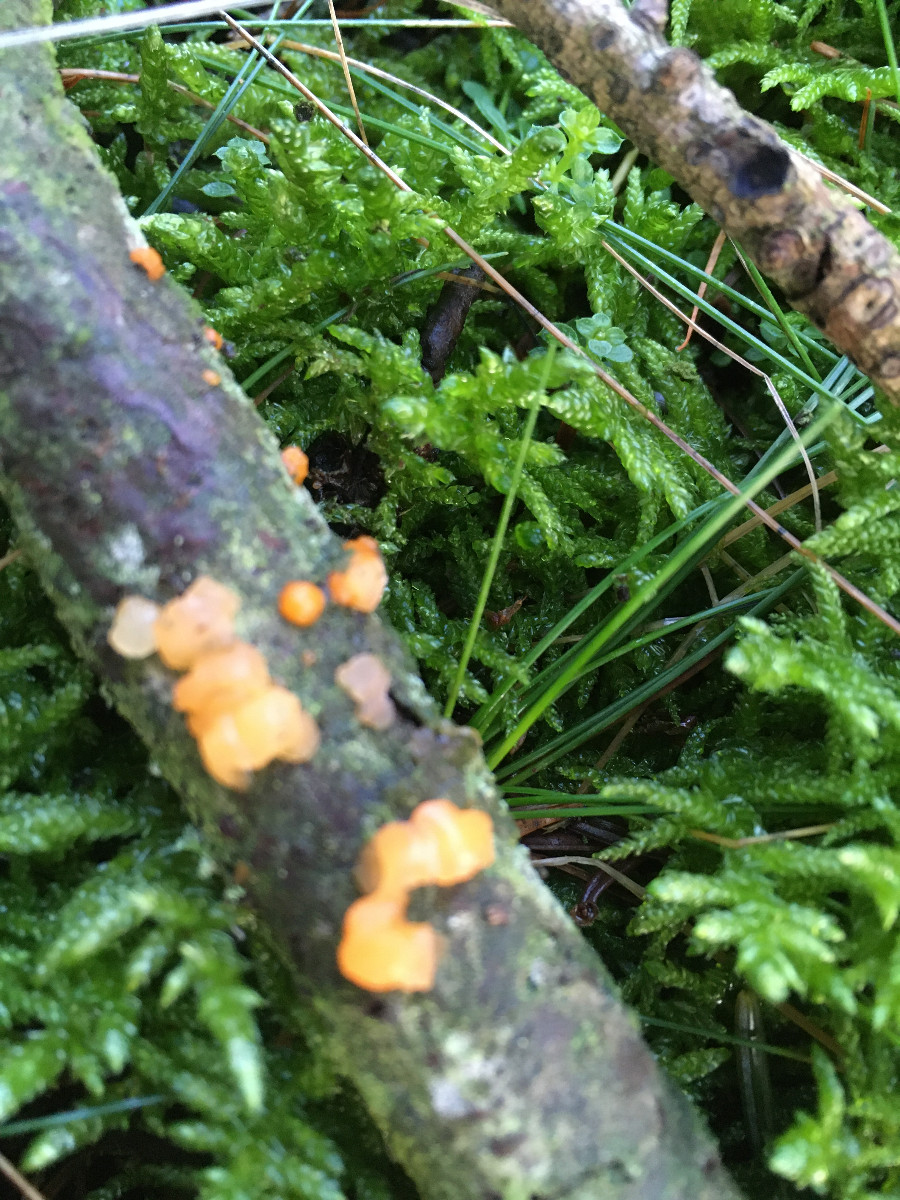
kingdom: Fungi
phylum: Basidiomycota
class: Dacrymycetes
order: Dacrymycetales
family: Dacrymycetaceae
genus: Dacrymyces
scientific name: Dacrymyces stillatus
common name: almindelig tåresvamp
